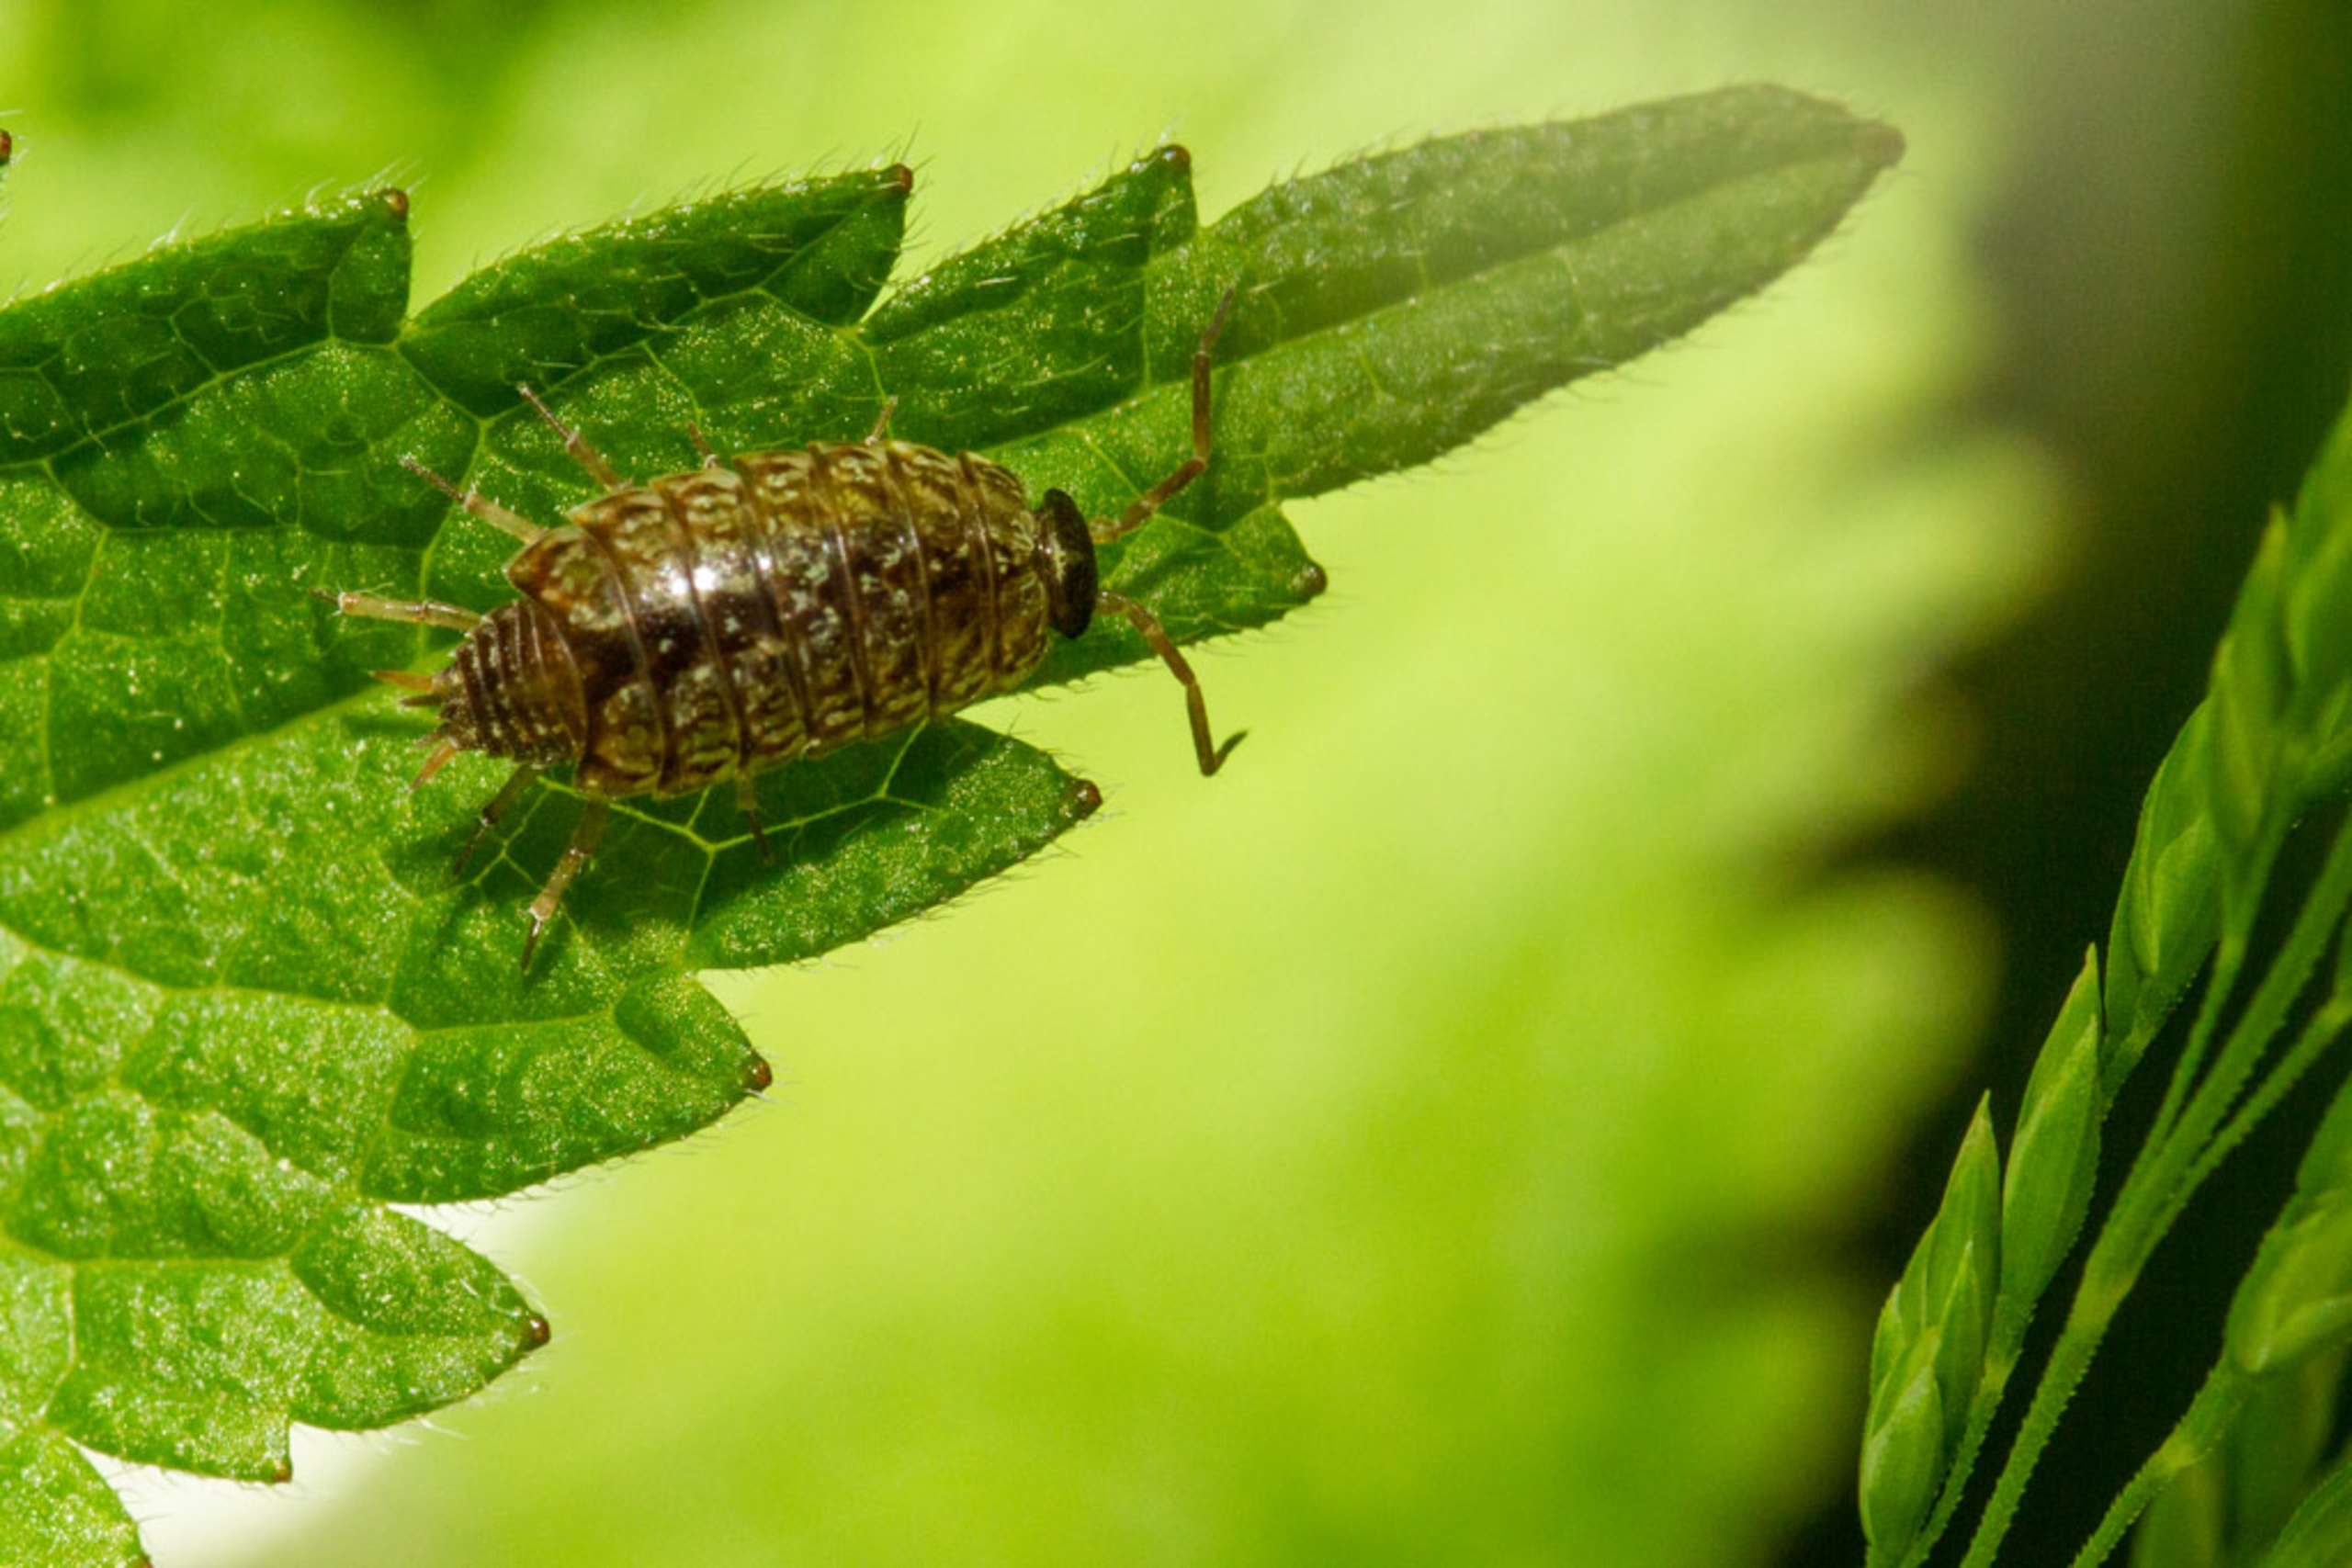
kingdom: Animalia
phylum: Arthropoda
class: Malacostraca
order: Isopoda
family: Philosciidae
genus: Philoscia
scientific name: Philoscia muscorum
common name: Langbenet bænkebider
